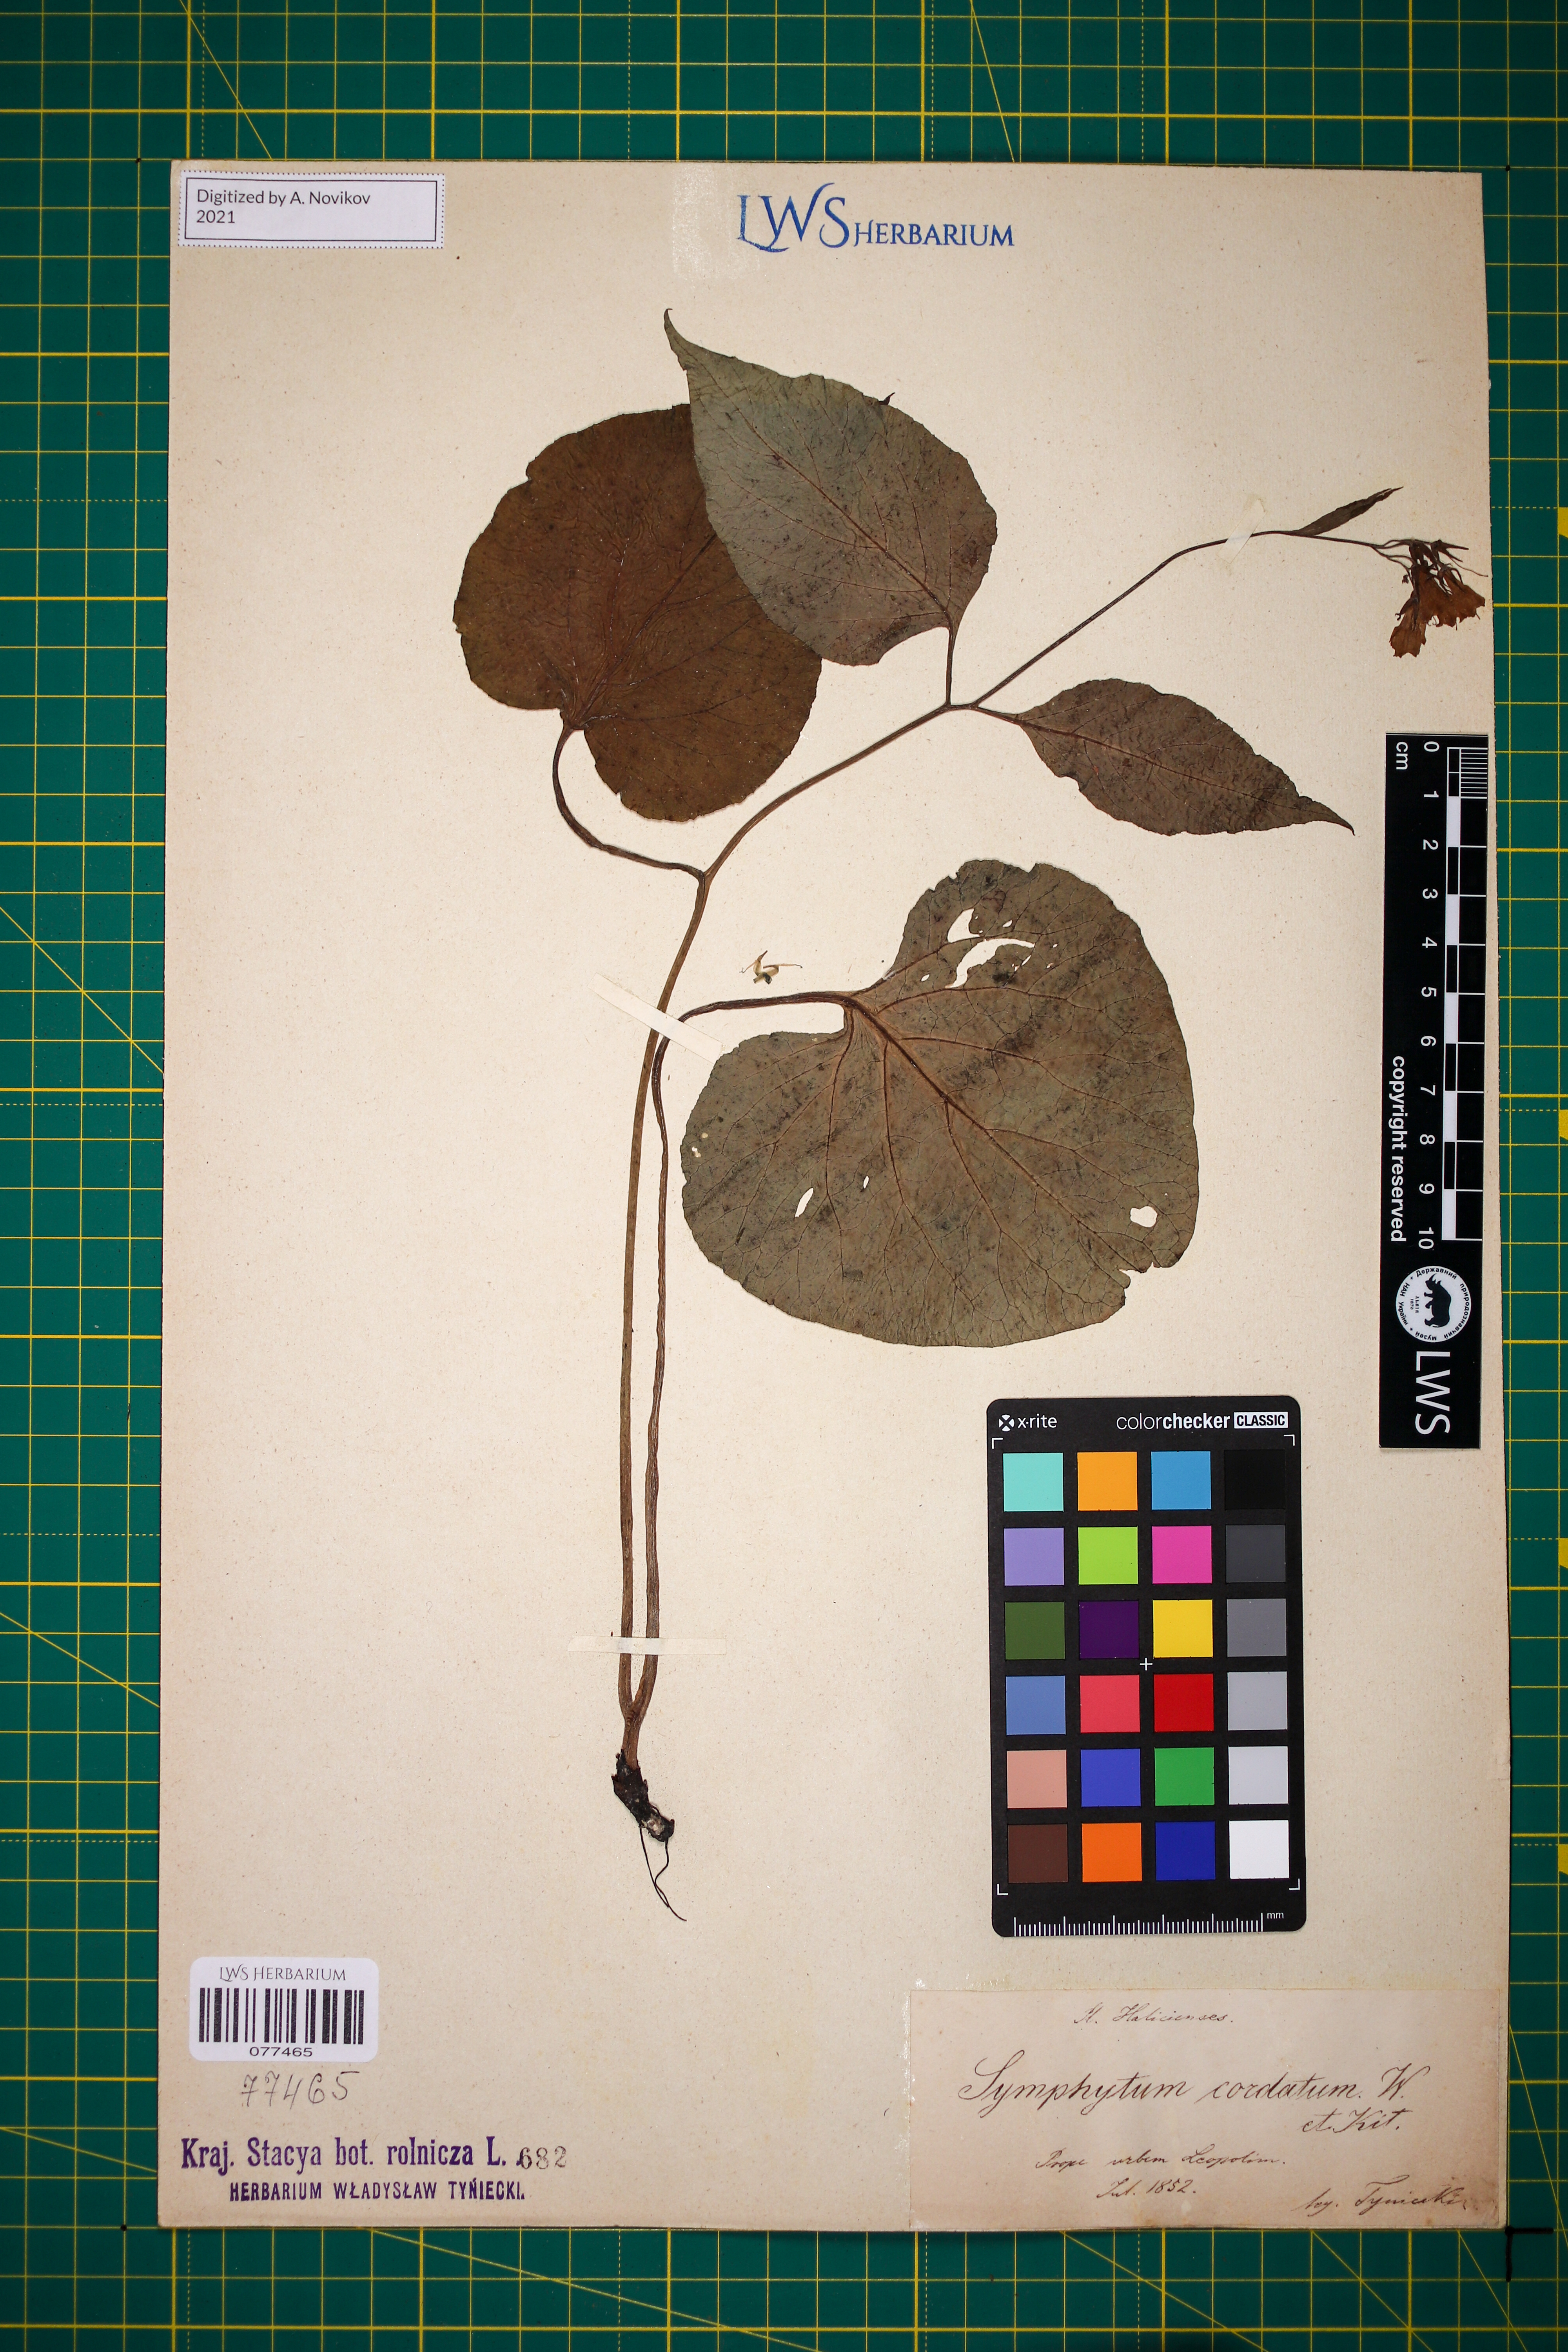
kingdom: Plantae
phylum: Tracheophyta
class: Magnoliopsida
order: Boraginales
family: Boraginaceae
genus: Symphytum
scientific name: Symphytum cordatum
